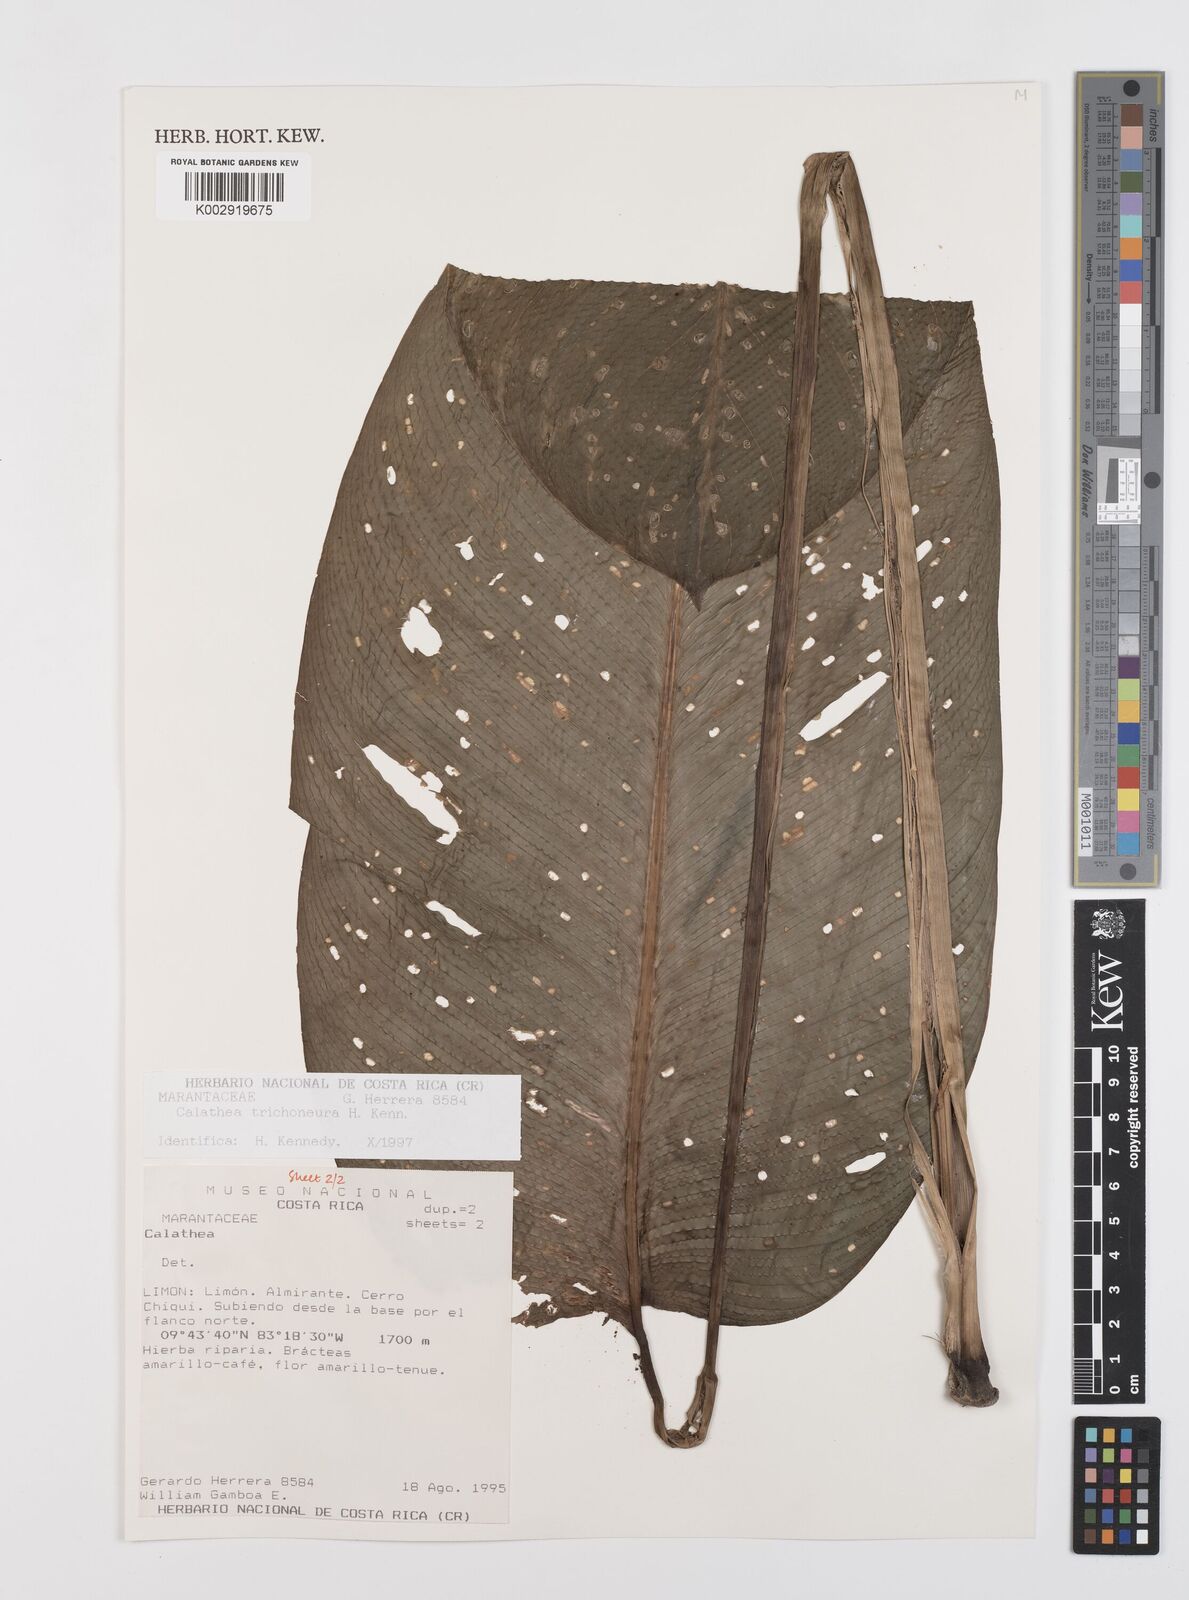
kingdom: Plantae
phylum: Tracheophyta
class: Liliopsida
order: Zingiberales
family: Marantaceae
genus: Goeppertia
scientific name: Goeppertia trichoneura
